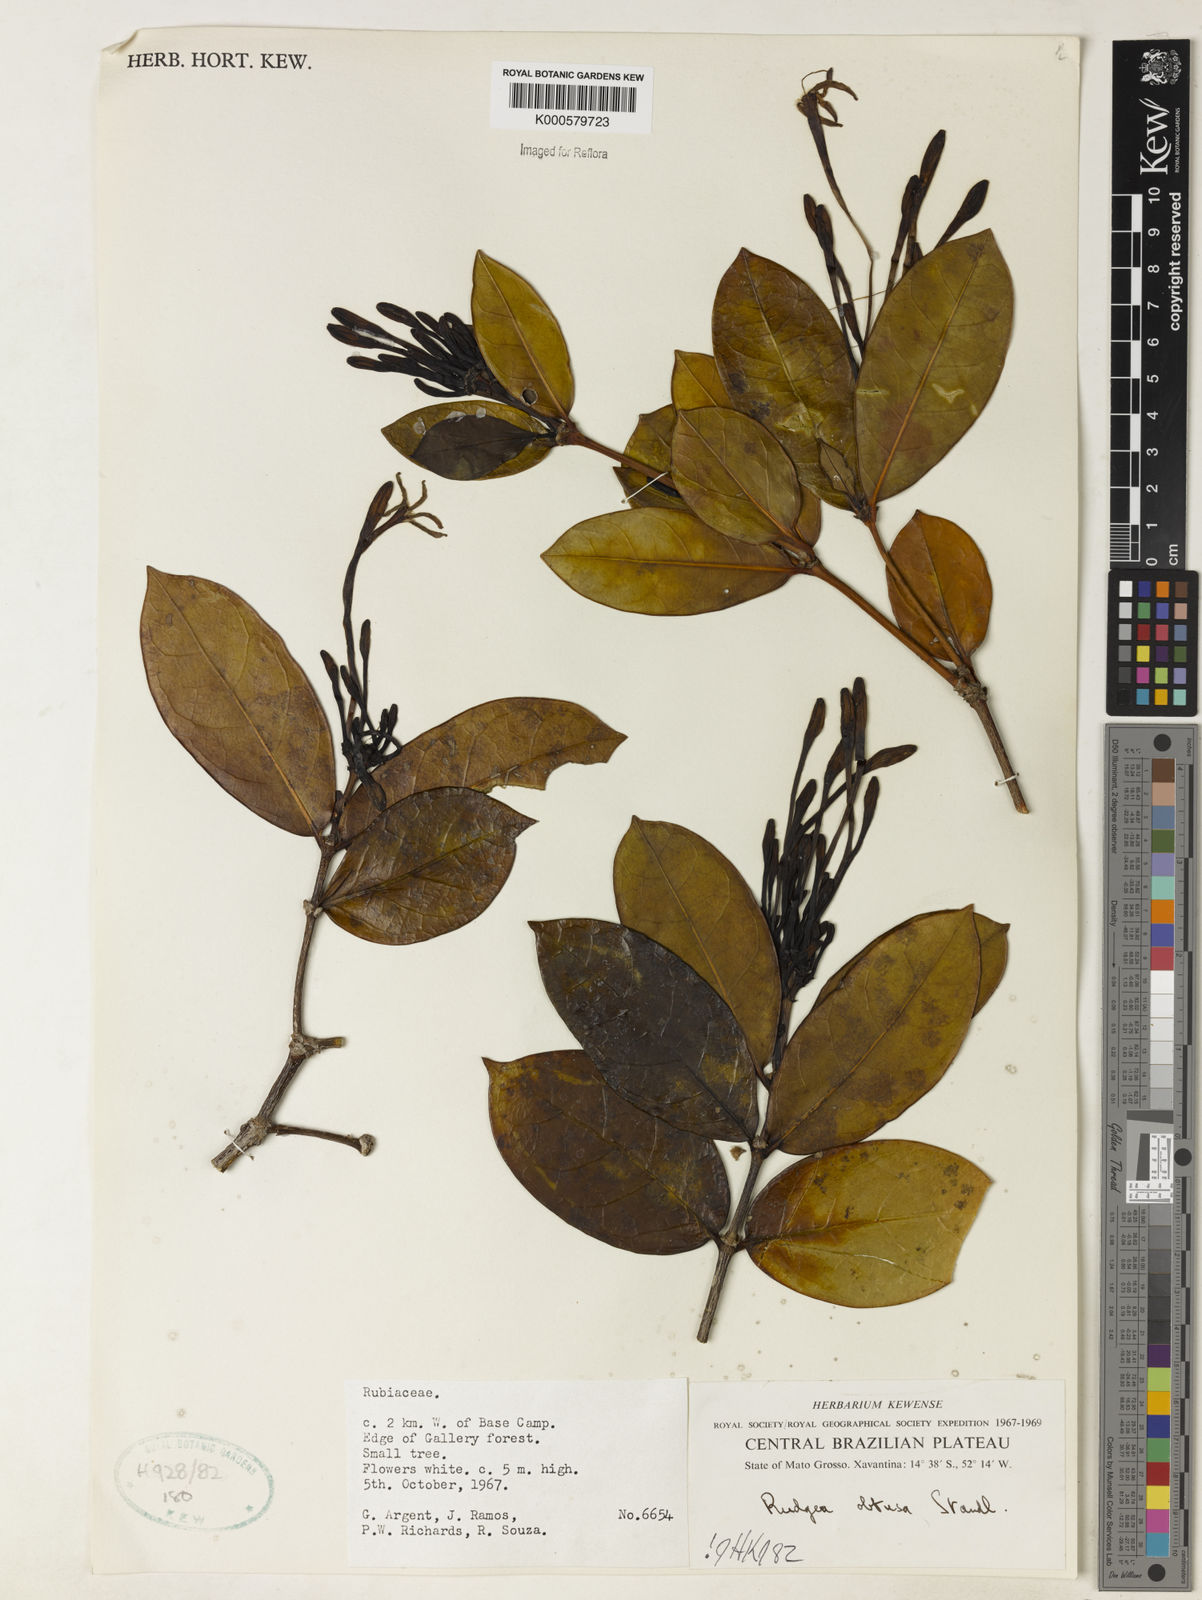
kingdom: Plantae
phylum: Tracheophyta
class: Magnoliopsida
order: Gentianales
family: Rubiaceae
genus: Rudgea
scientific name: Rudgea goyazensis
